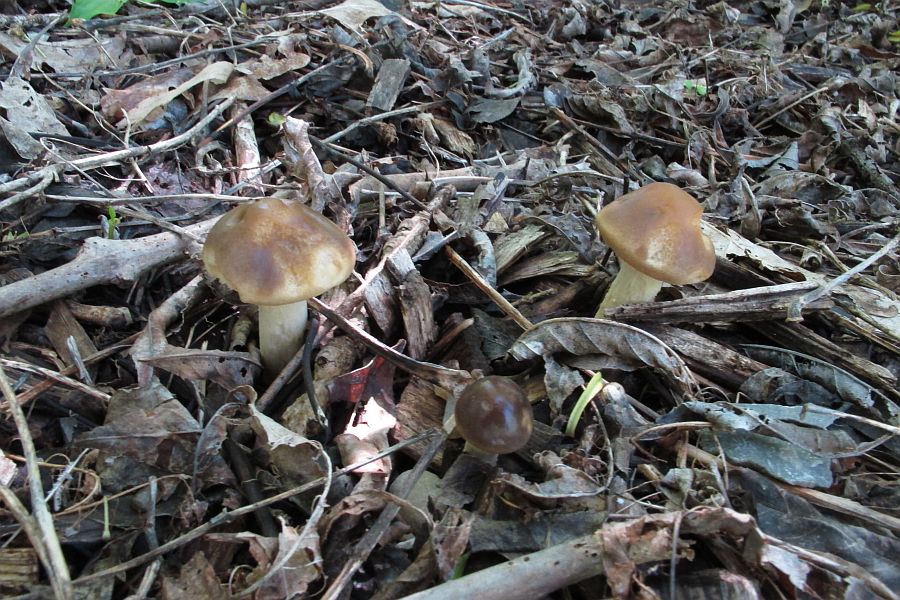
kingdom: Fungi
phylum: Basidiomycota
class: Agaricomycetes
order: Agaricales
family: Strophariaceae
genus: Agrocybe
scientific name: Agrocybe praecox
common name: tidlig agerhat
